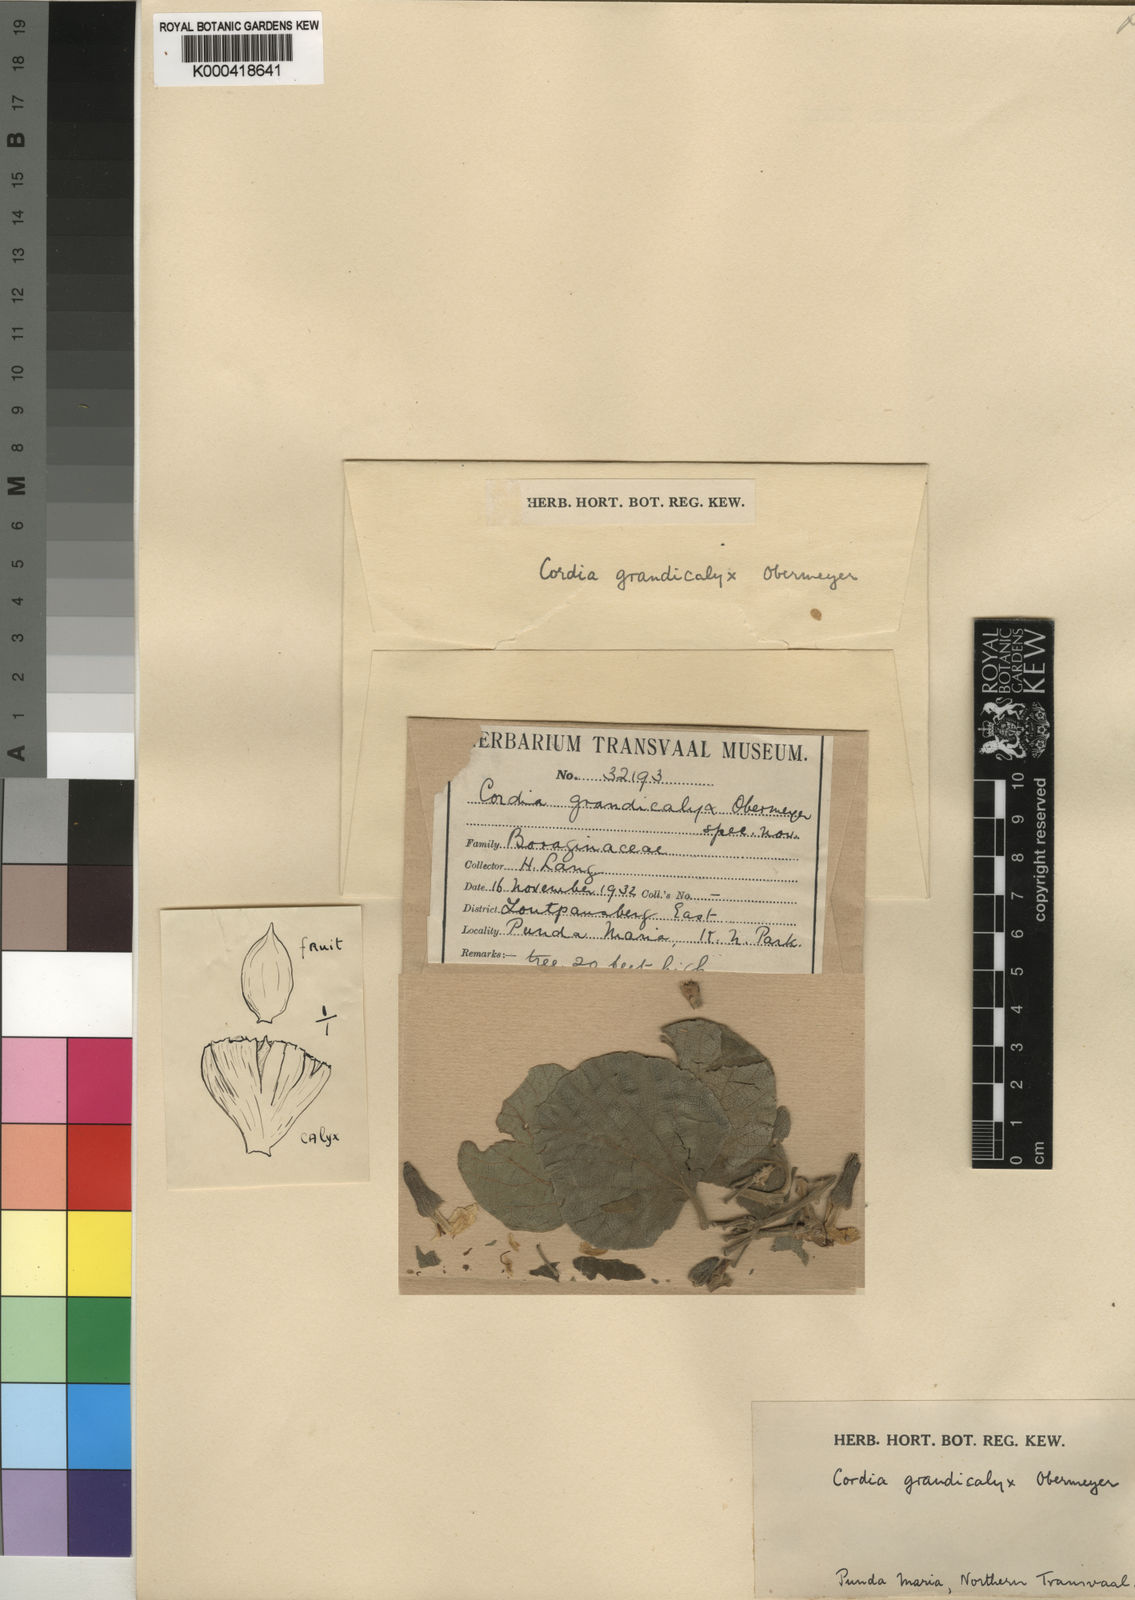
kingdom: Plantae
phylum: Tracheophyta
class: Magnoliopsida
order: Boraginales
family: Cordiaceae
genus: Cordia
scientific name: Cordia grandicalyx
